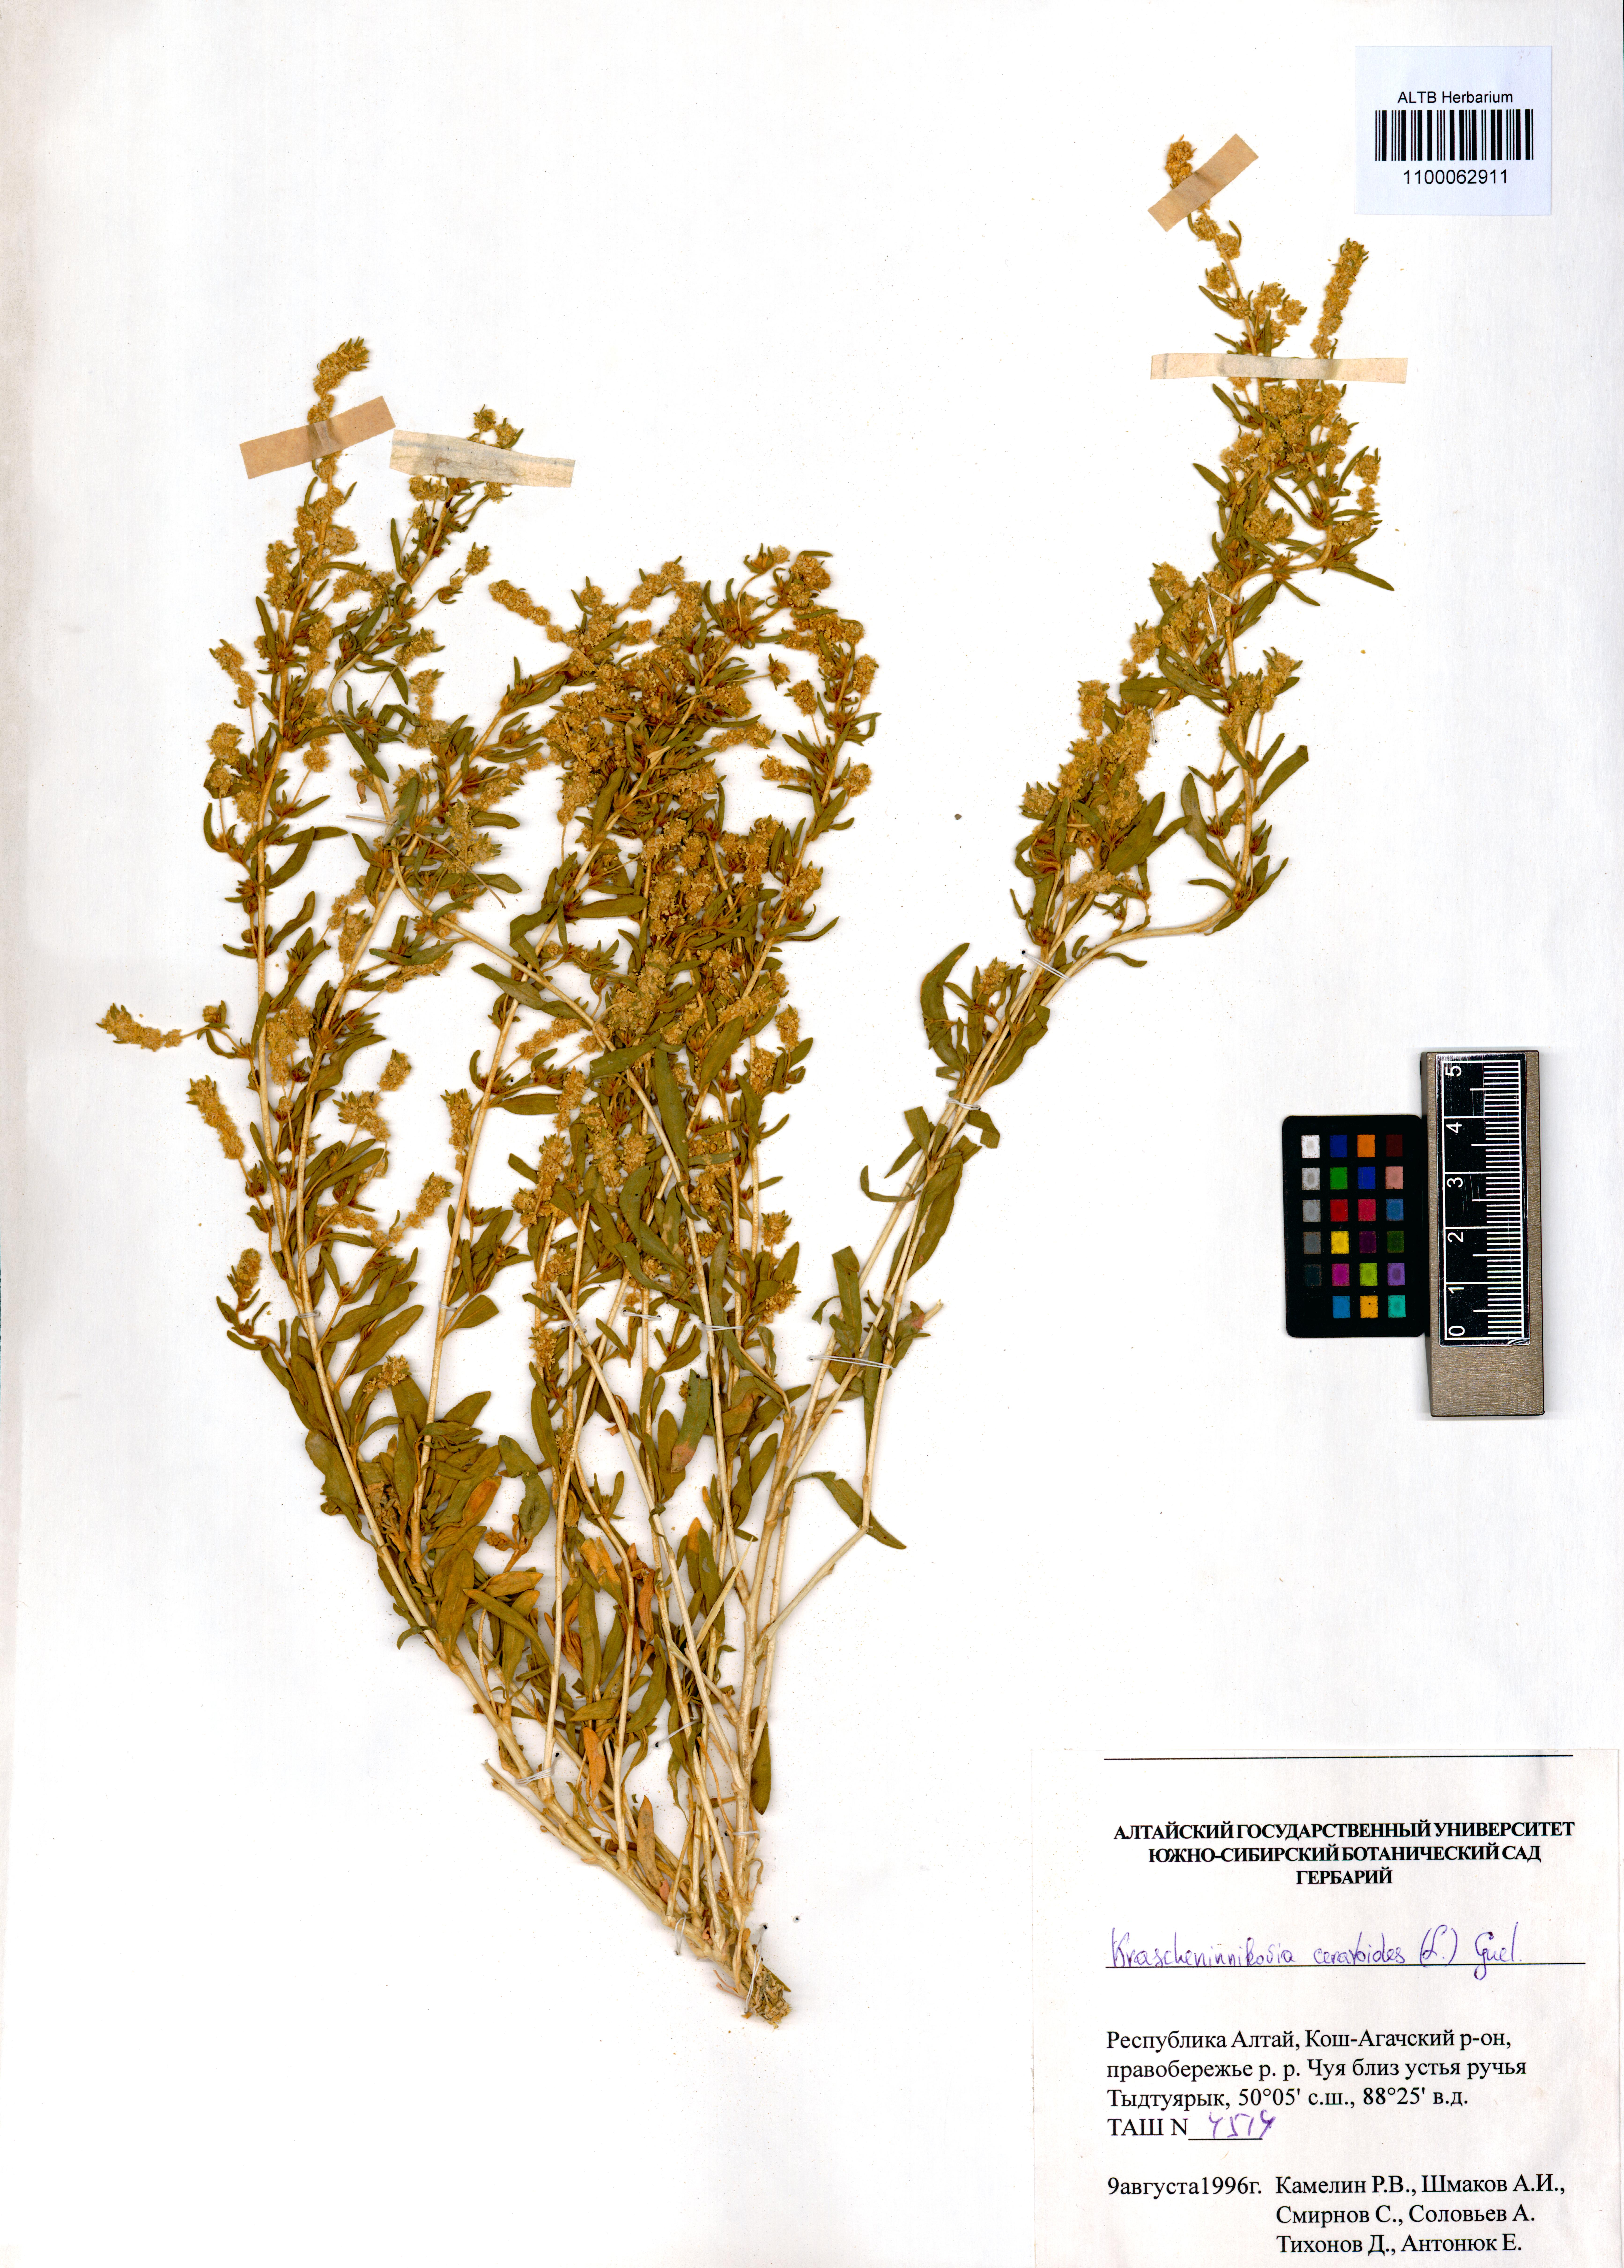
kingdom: Plantae
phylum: Tracheophyta
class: Magnoliopsida
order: Caryophyllales
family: Amaranthaceae
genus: Krascheninnikovia
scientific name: Krascheninnikovia ceratoides
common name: Pamirian winterfat
